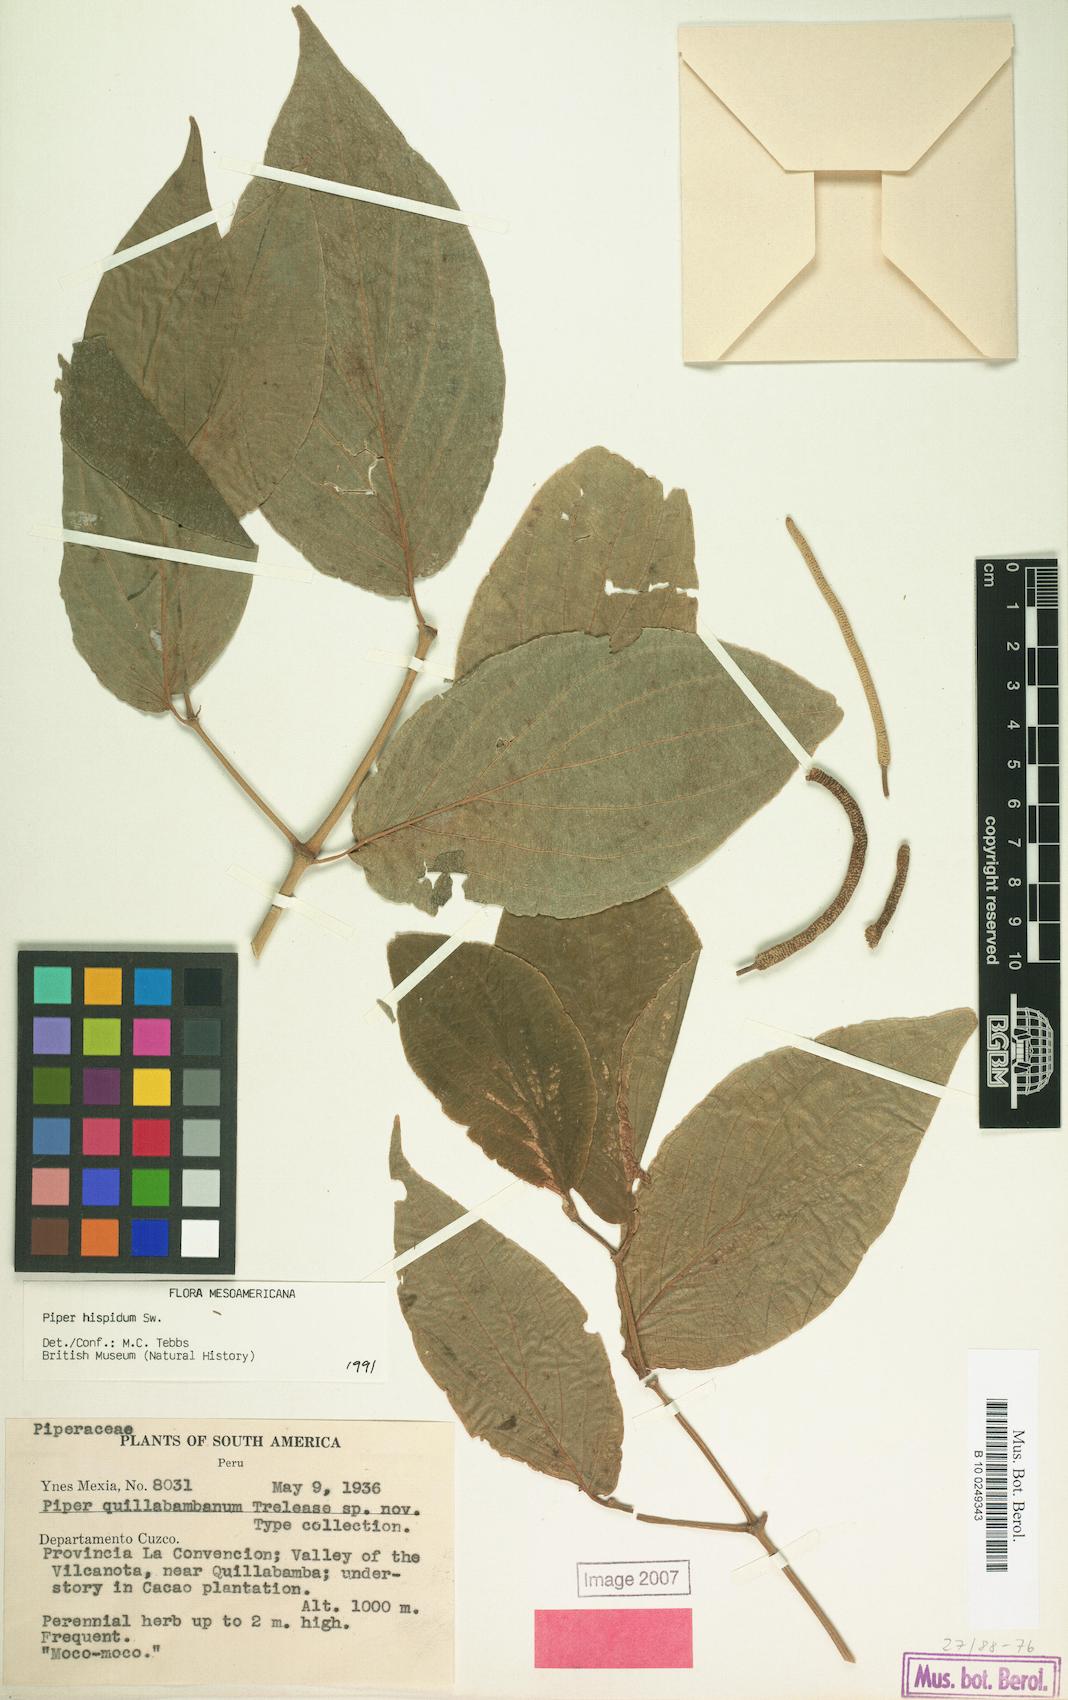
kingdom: Plantae
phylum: Tracheophyta
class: Magnoliopsida
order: Piperales
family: Piperaceae
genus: Piper
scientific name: Piper hispidum
